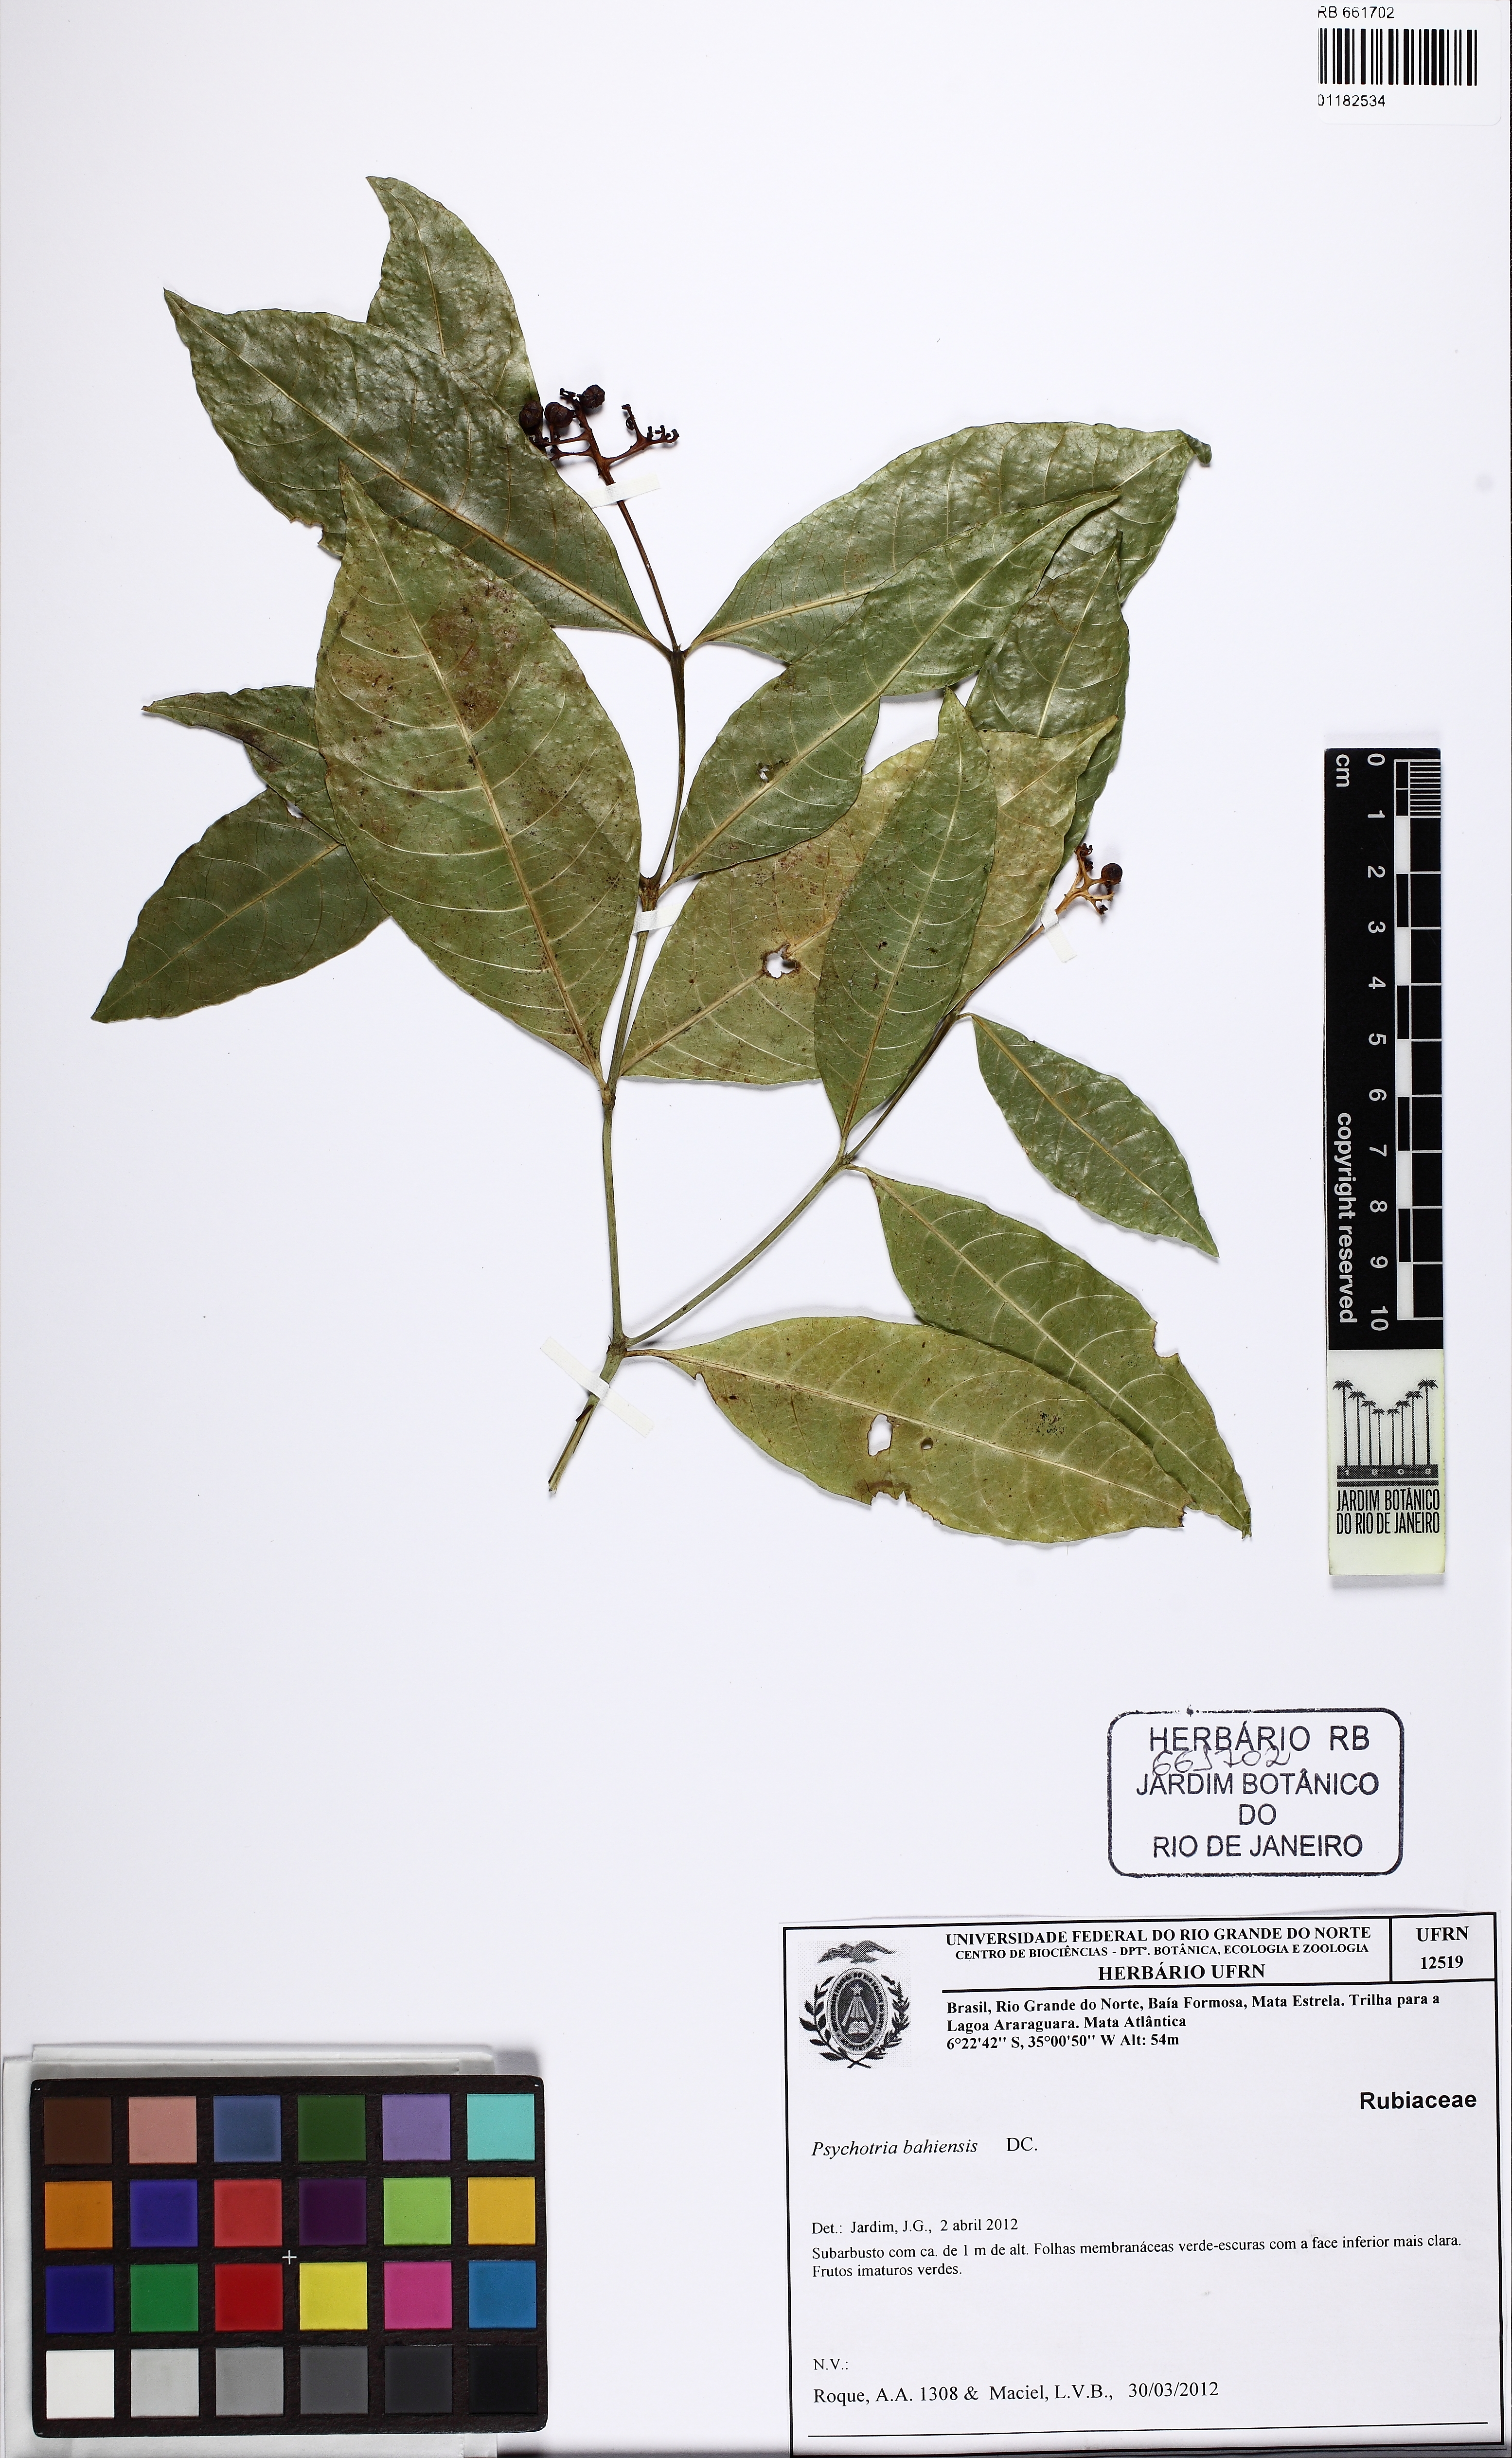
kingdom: Plantae
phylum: Tracheophyta
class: Magnoliopsida
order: Gentianales
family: Rubiaceae
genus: Psychotria
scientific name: Psychotria bahiensis
